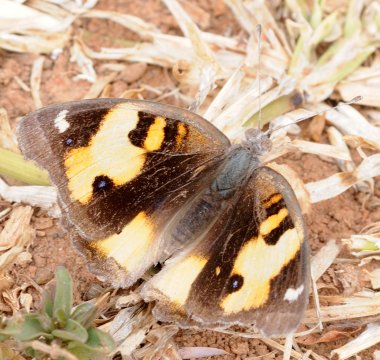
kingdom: Animalia
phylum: Arthropoda
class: Insecta
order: Lepidoptera
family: Nymphalidae
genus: Junonia
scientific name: Junonia hierta
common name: Yellow Pansy
